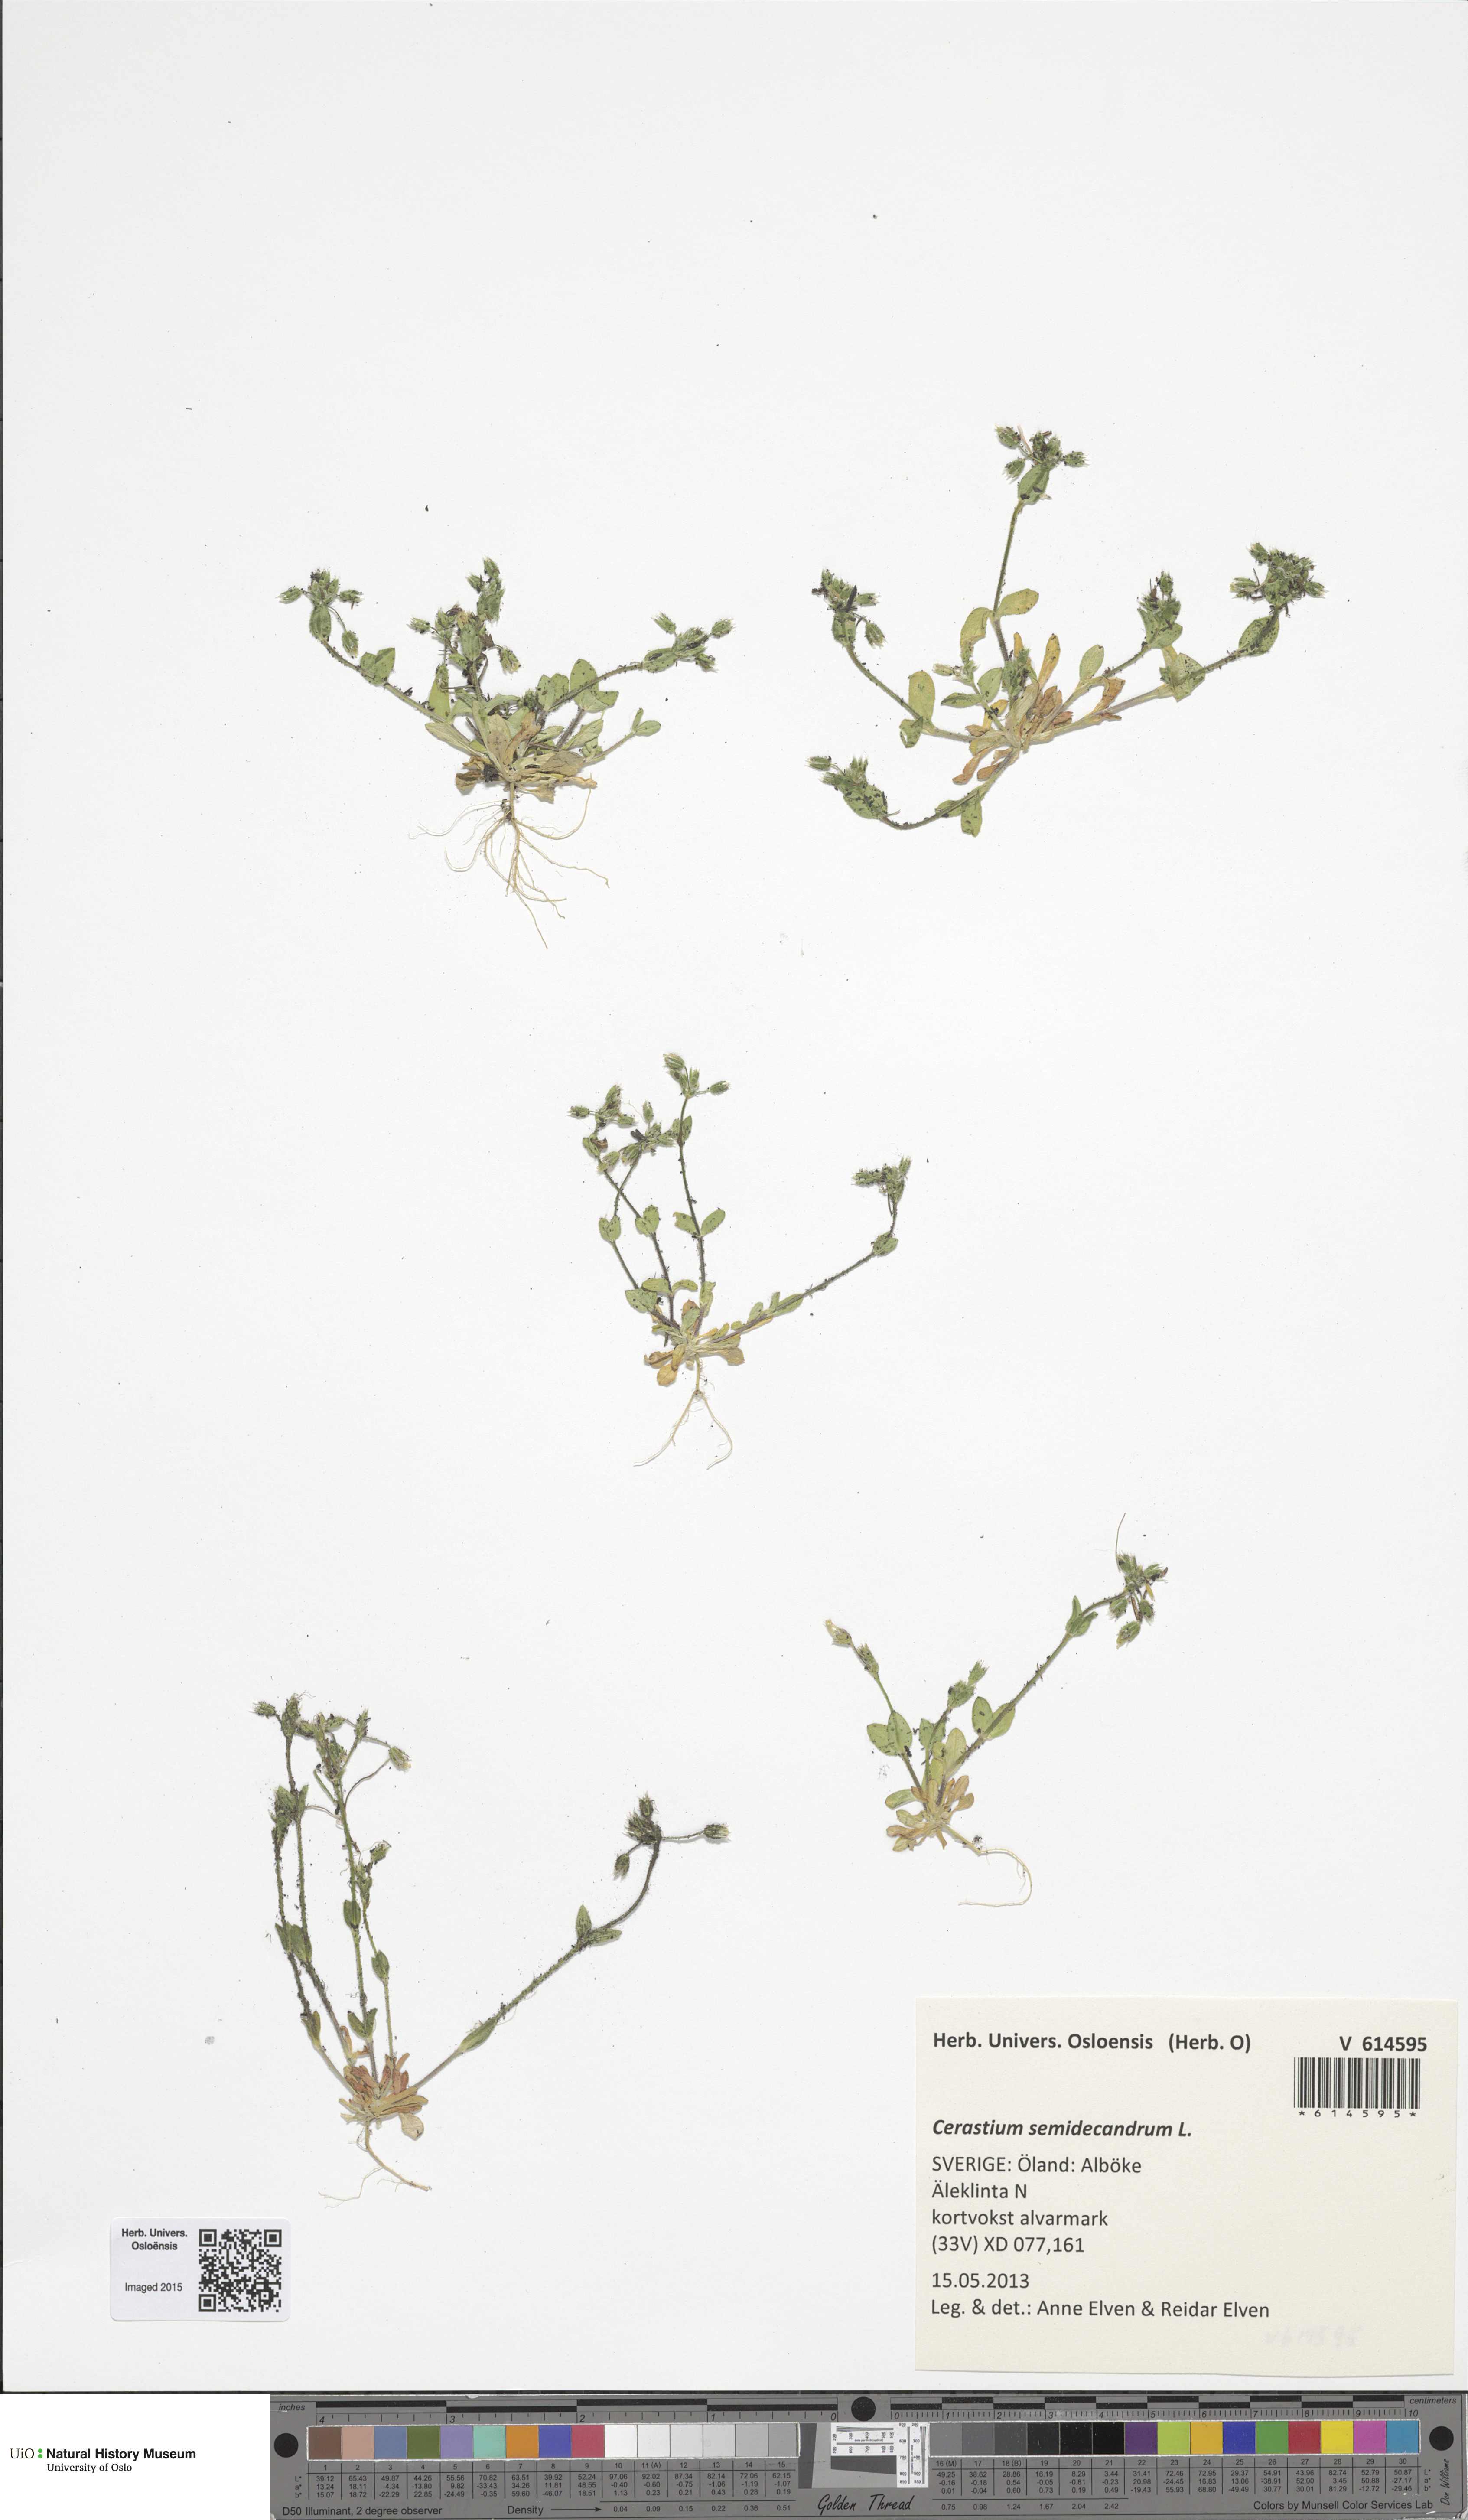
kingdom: Plantae
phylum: Tracheophyta
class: Magnoliopsida
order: Caryophyllales
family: Caryophyllaceae
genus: Cerastium
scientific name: Cerastium semidecandrum
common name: Little mouse-ear
